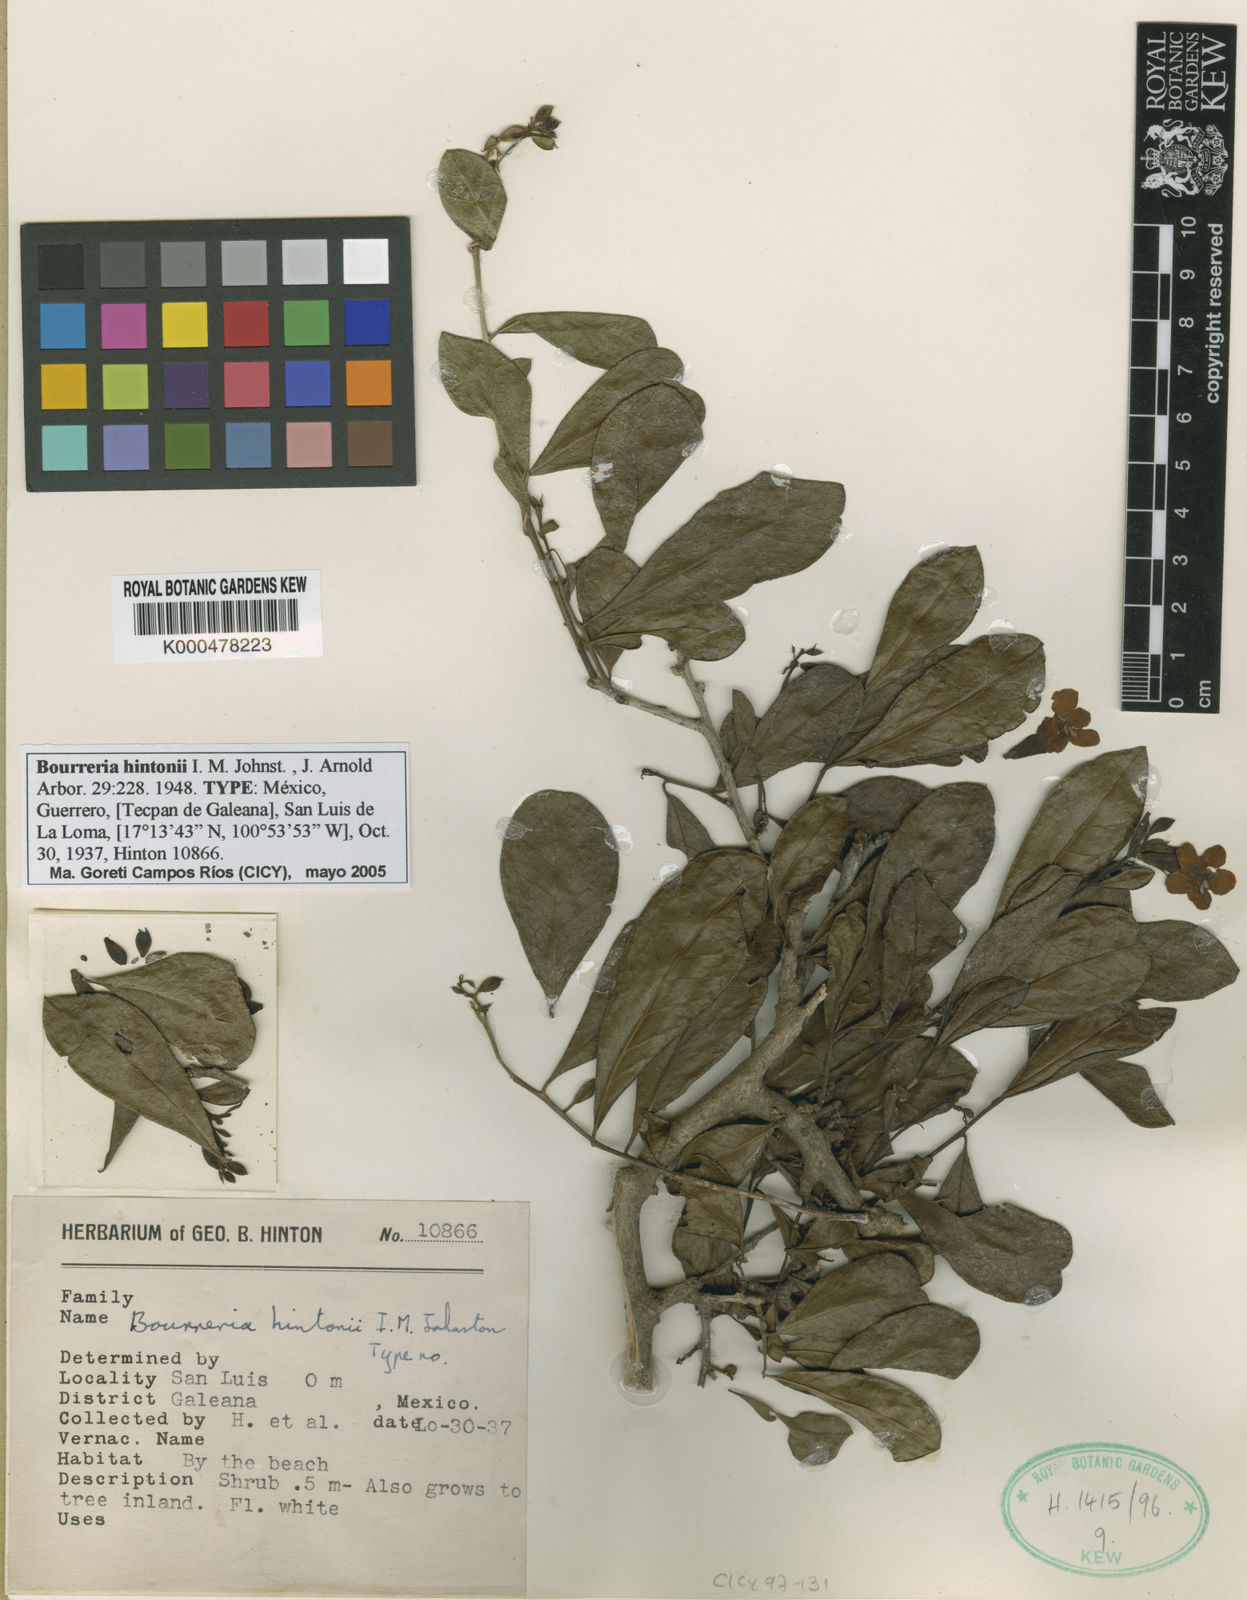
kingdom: Plantae
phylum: Tracheophyta
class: Magnoliopsida
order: Boraginales
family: Ehretiaceae
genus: Bourreria
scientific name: Bourreria
